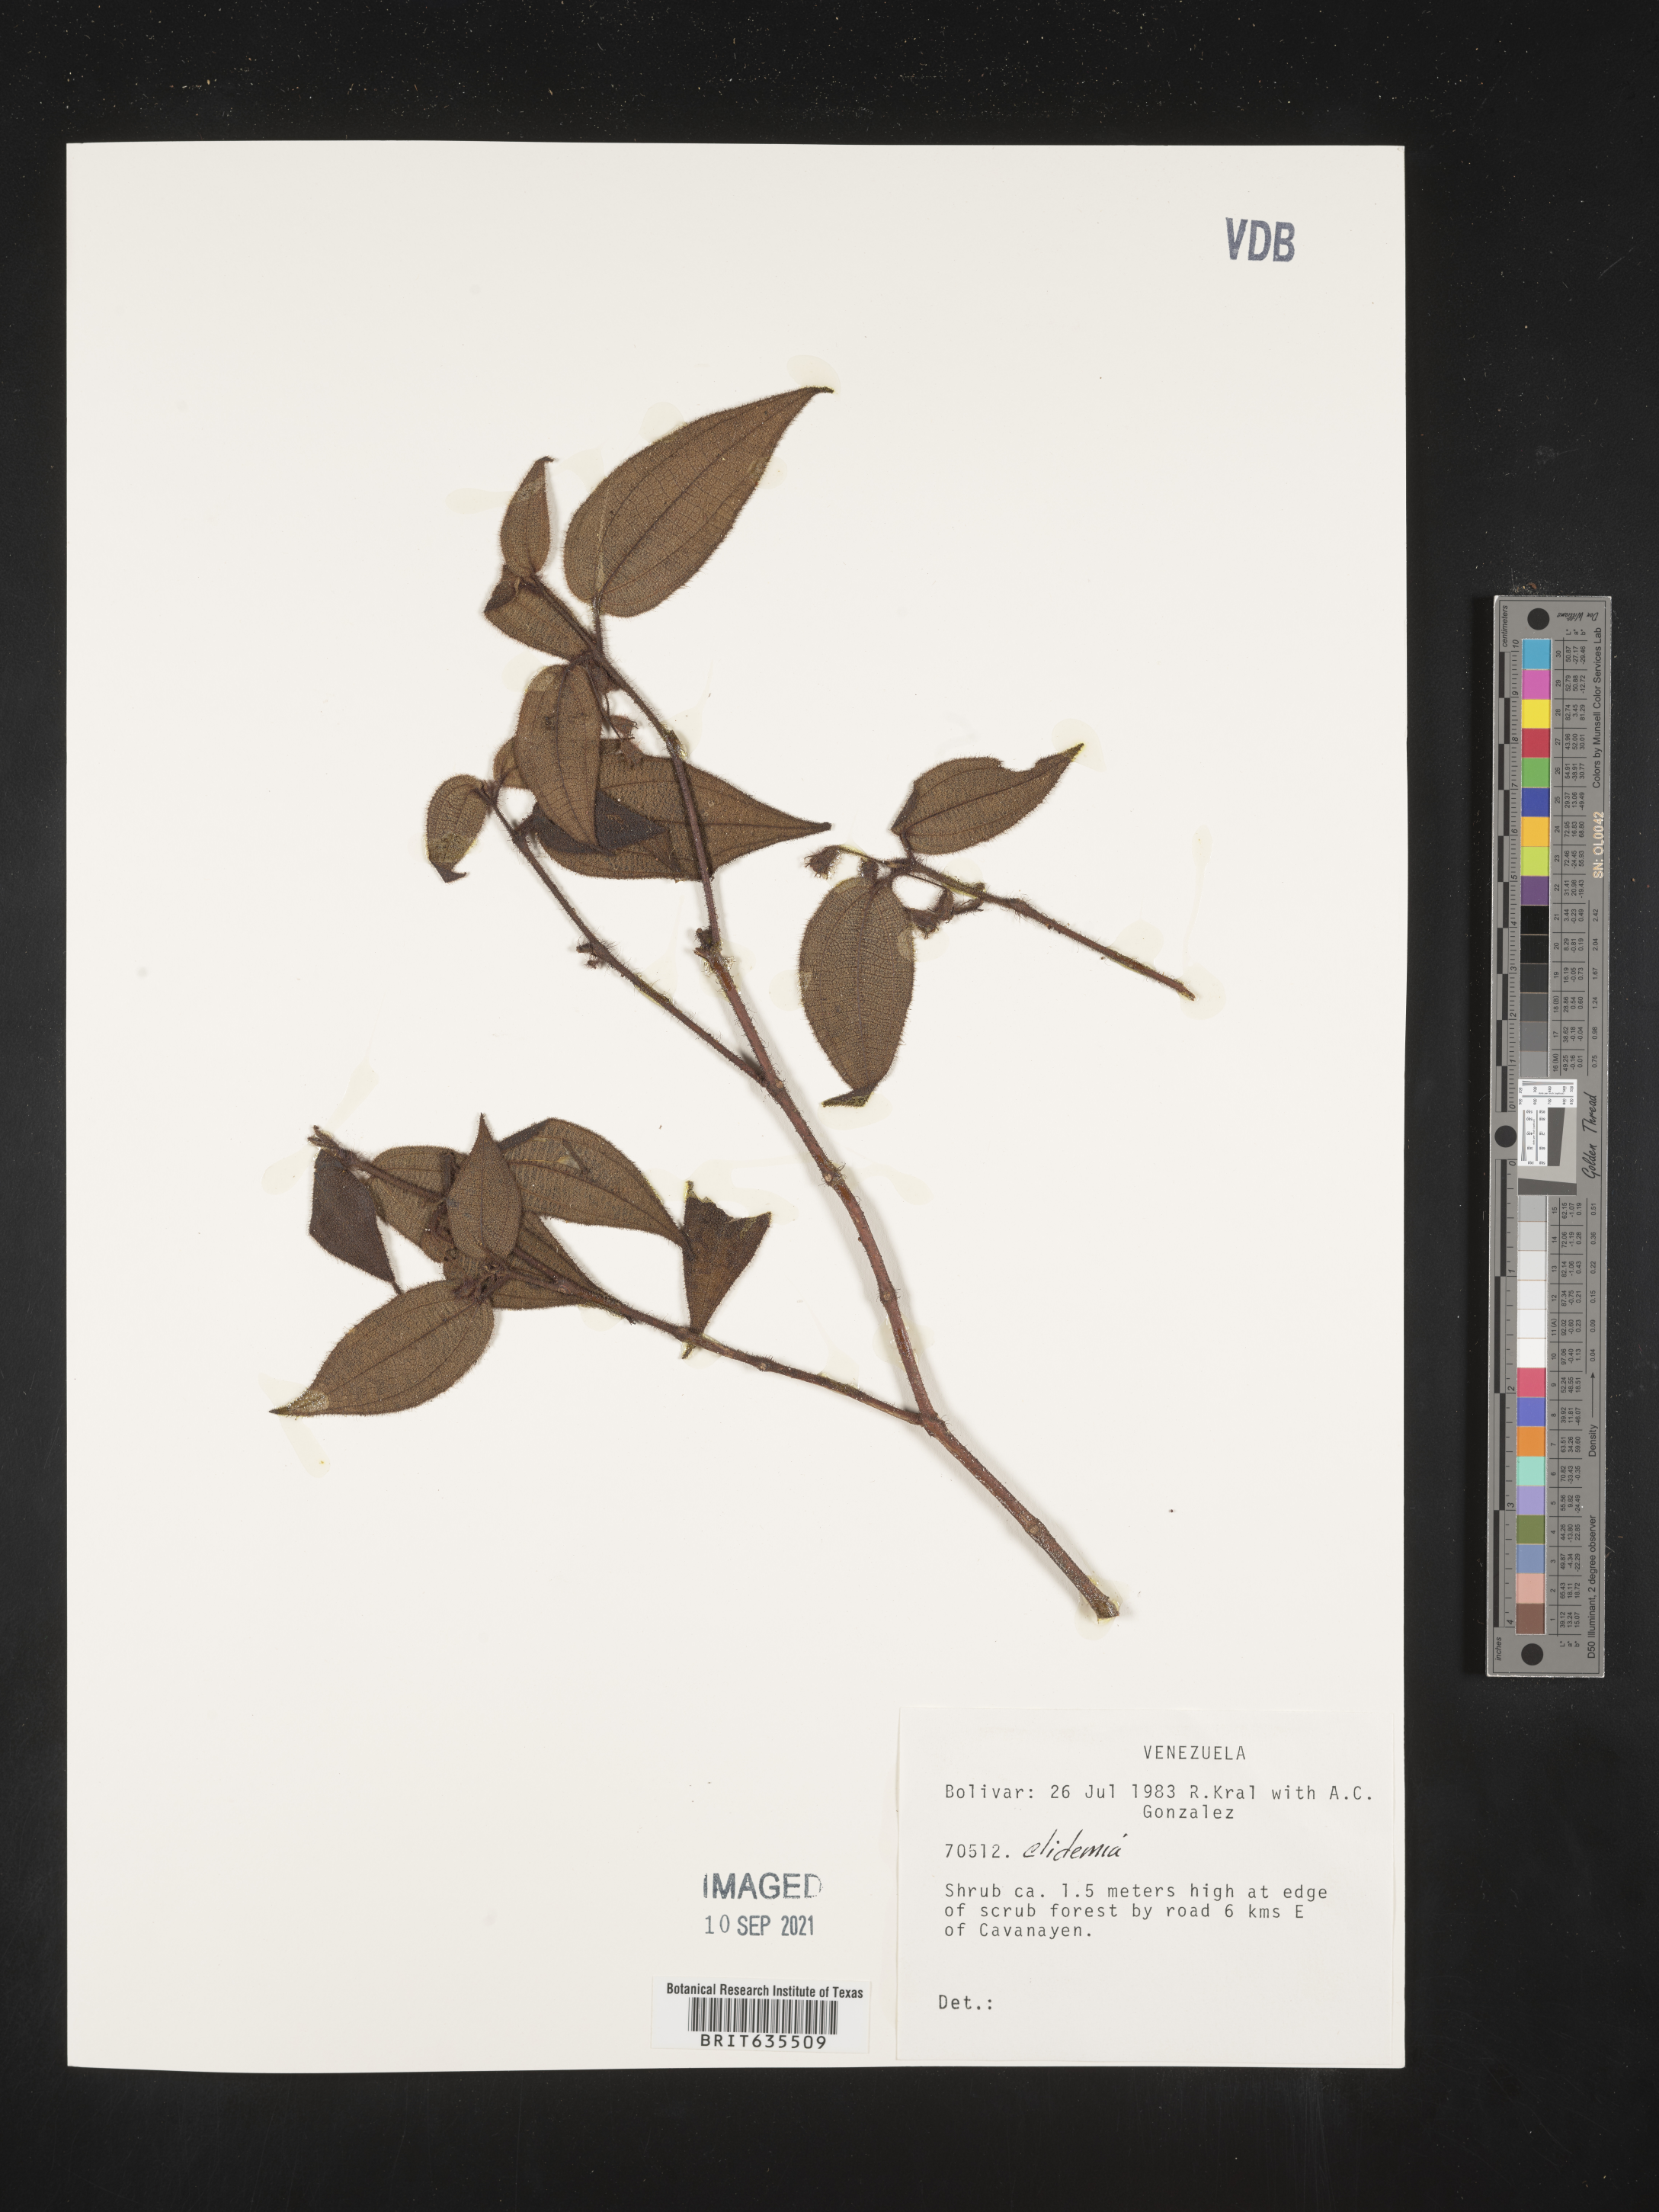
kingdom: Plantae
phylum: Tracheophyta
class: Magnoliopsida
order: Myrtales
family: Melastomataceae
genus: Miconia
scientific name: Miconia
